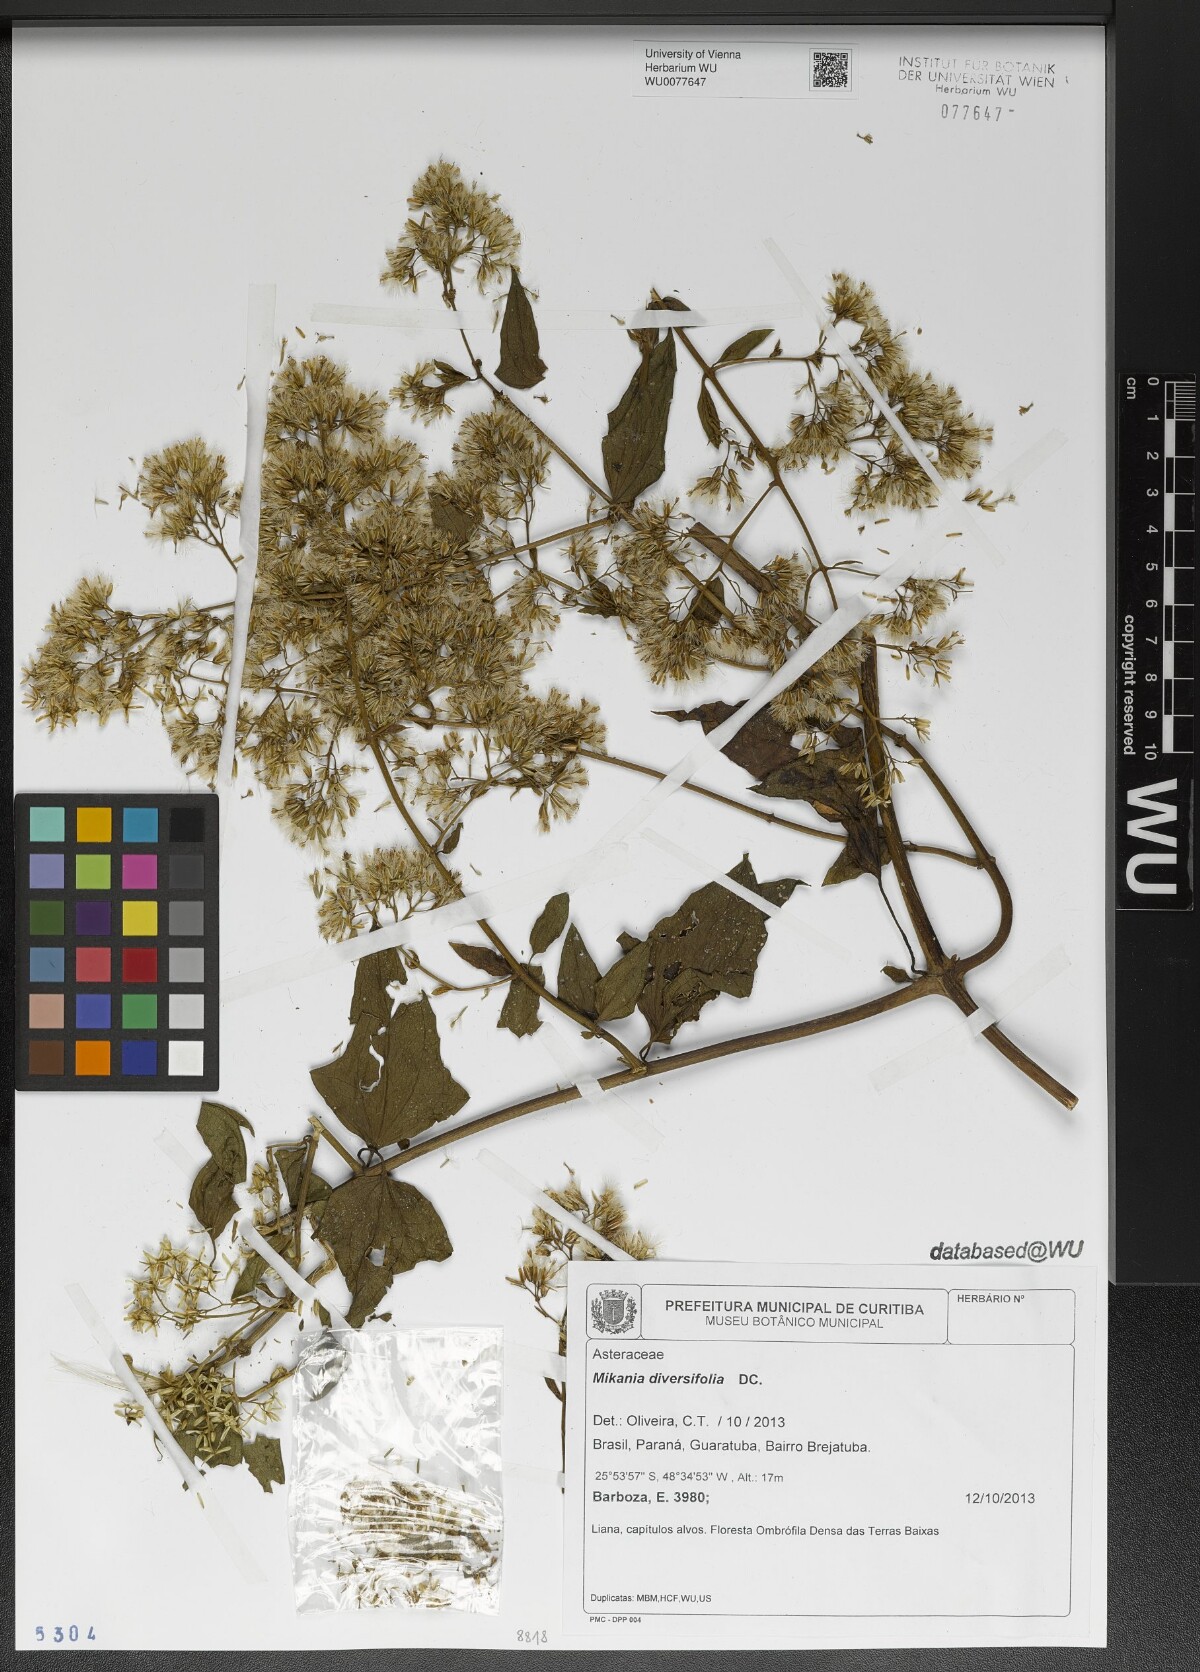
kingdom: Plantae
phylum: Tracheophyta
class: Magnoliopsida
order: Asterales
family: Asteraceae
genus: Mikania
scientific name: Mikania diversifolia
